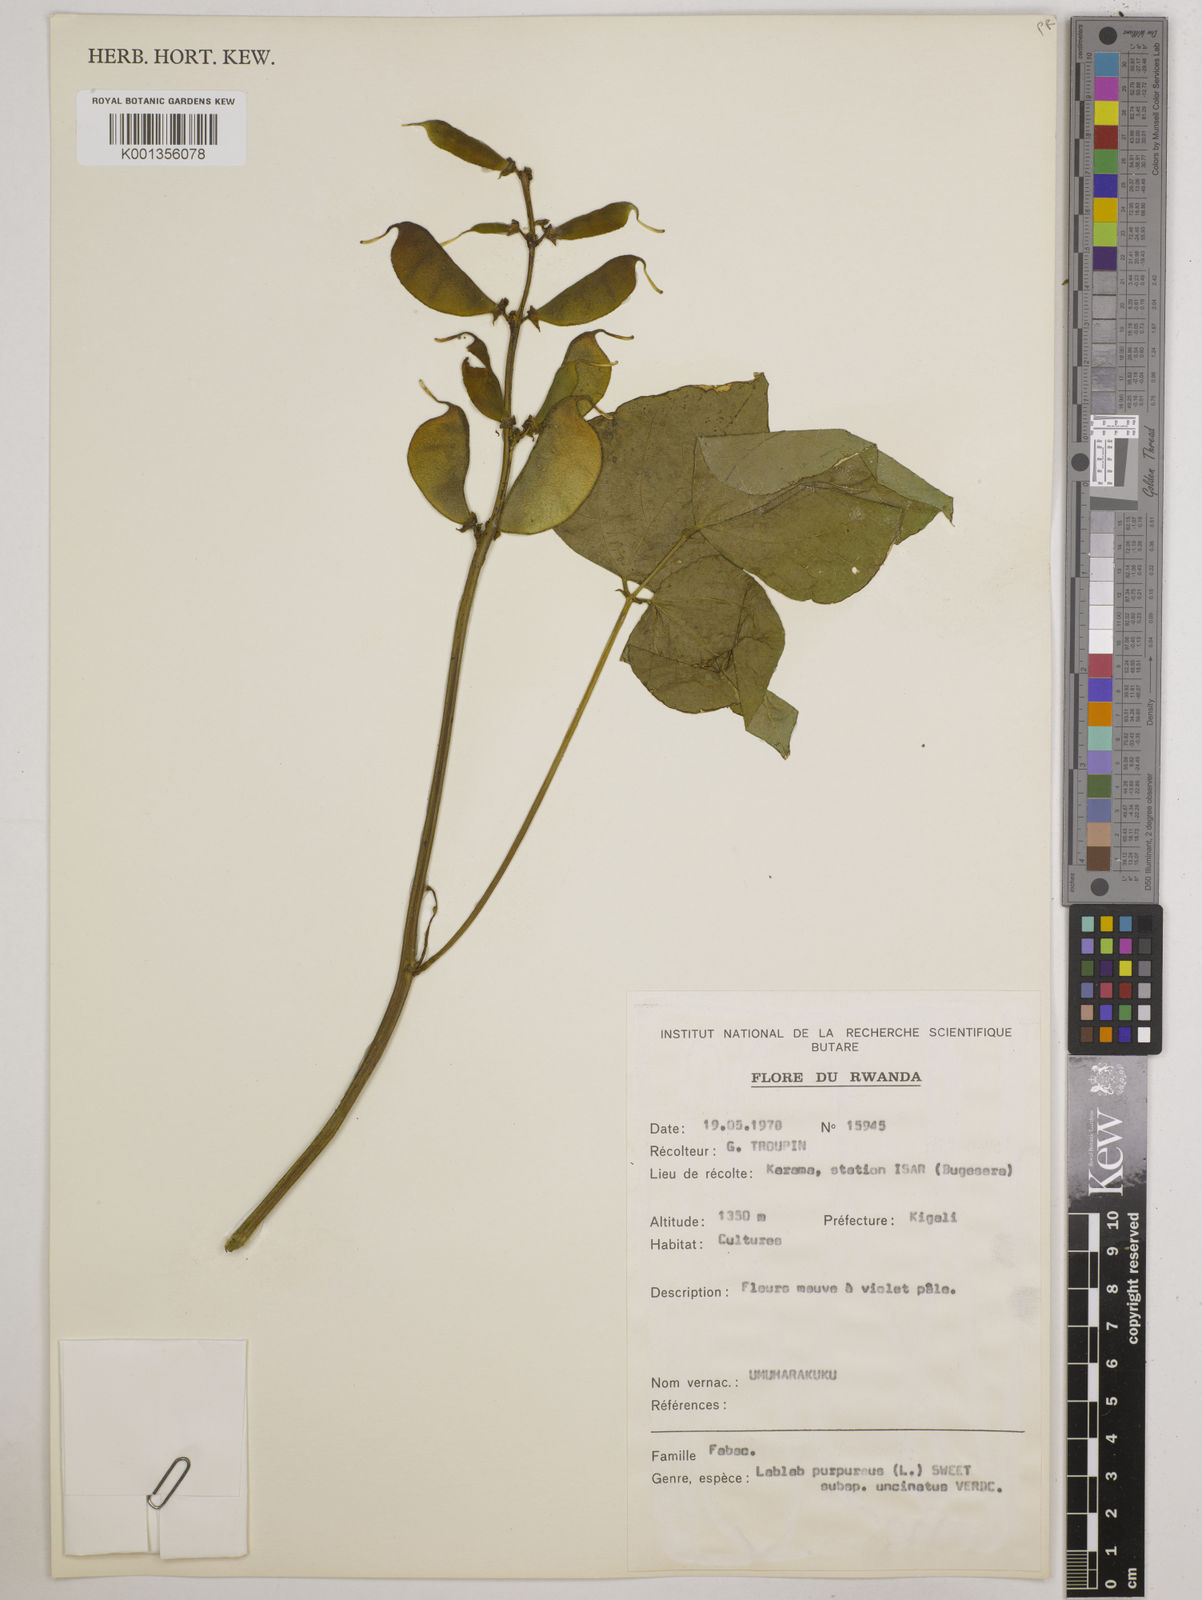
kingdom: Plantae
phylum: Tracheophyta
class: Magnoliopsida
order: Fabales
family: Fabaceae
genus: Lablab
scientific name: Lablab purpureus
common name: Lablab-bean
